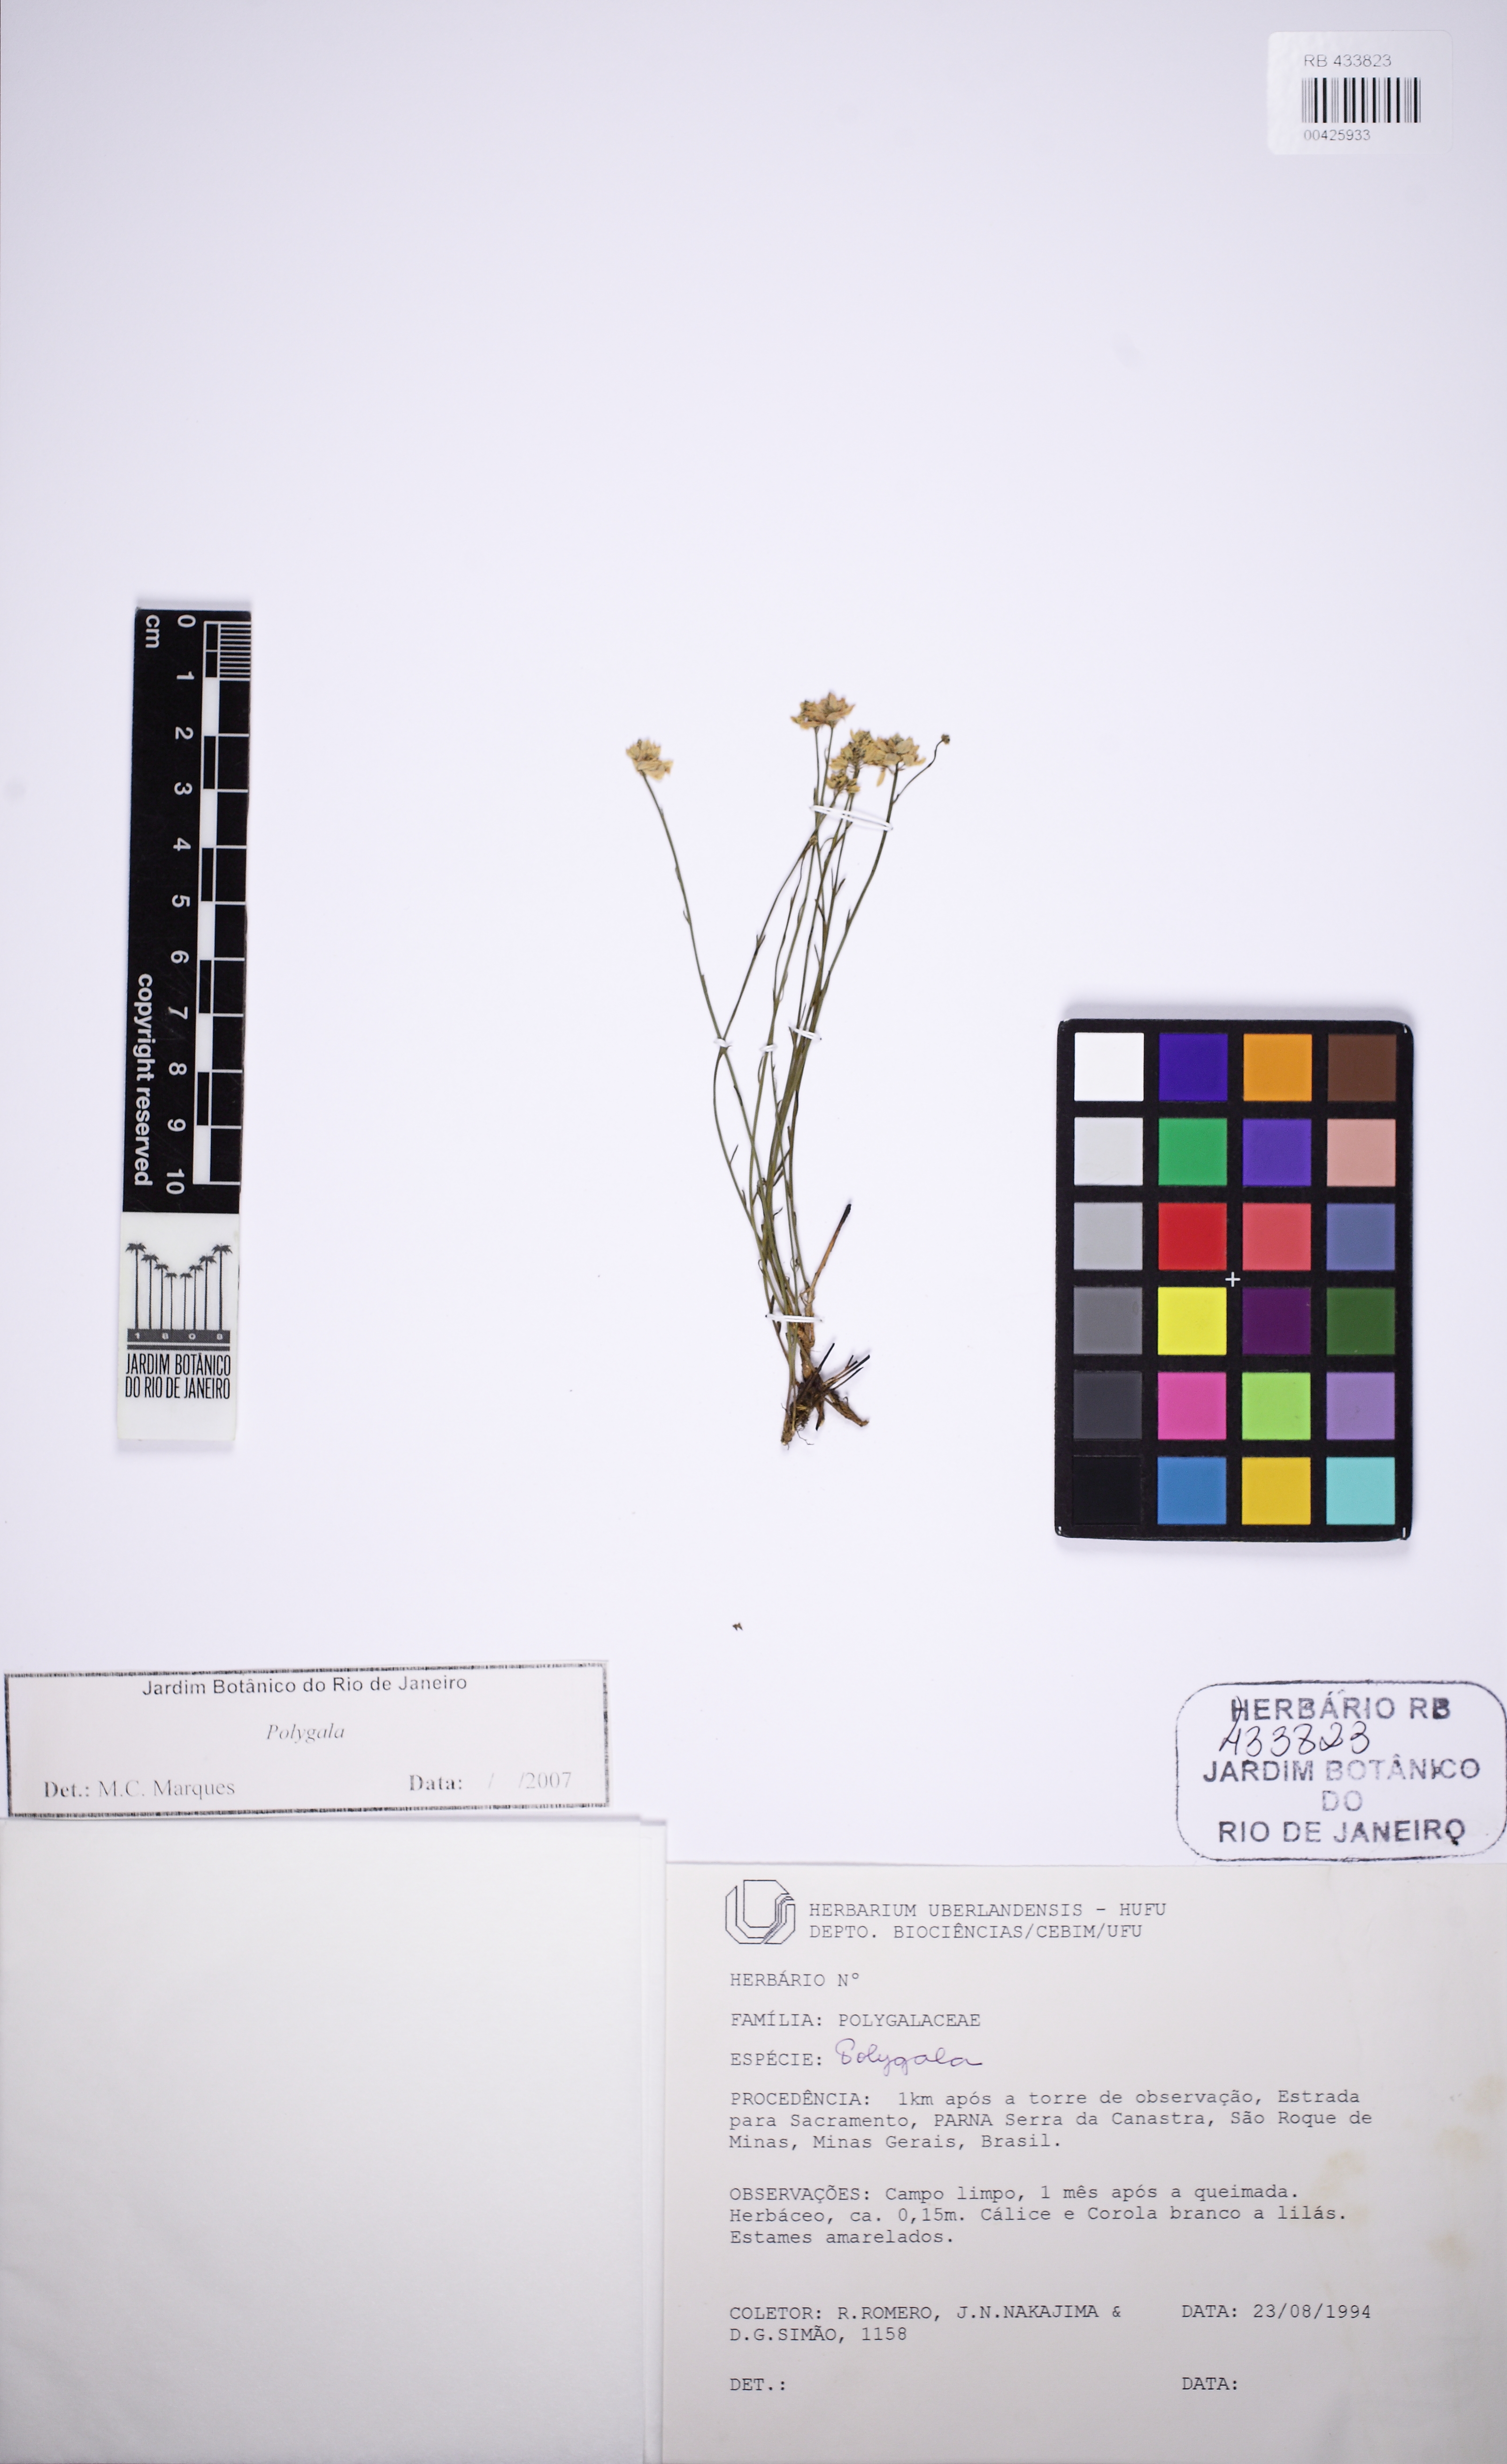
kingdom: Plantae
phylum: Tracheophyta
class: Magnoliopsida
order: Fabales
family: Polygalaceae
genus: Polygala
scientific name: Polygala juncea
